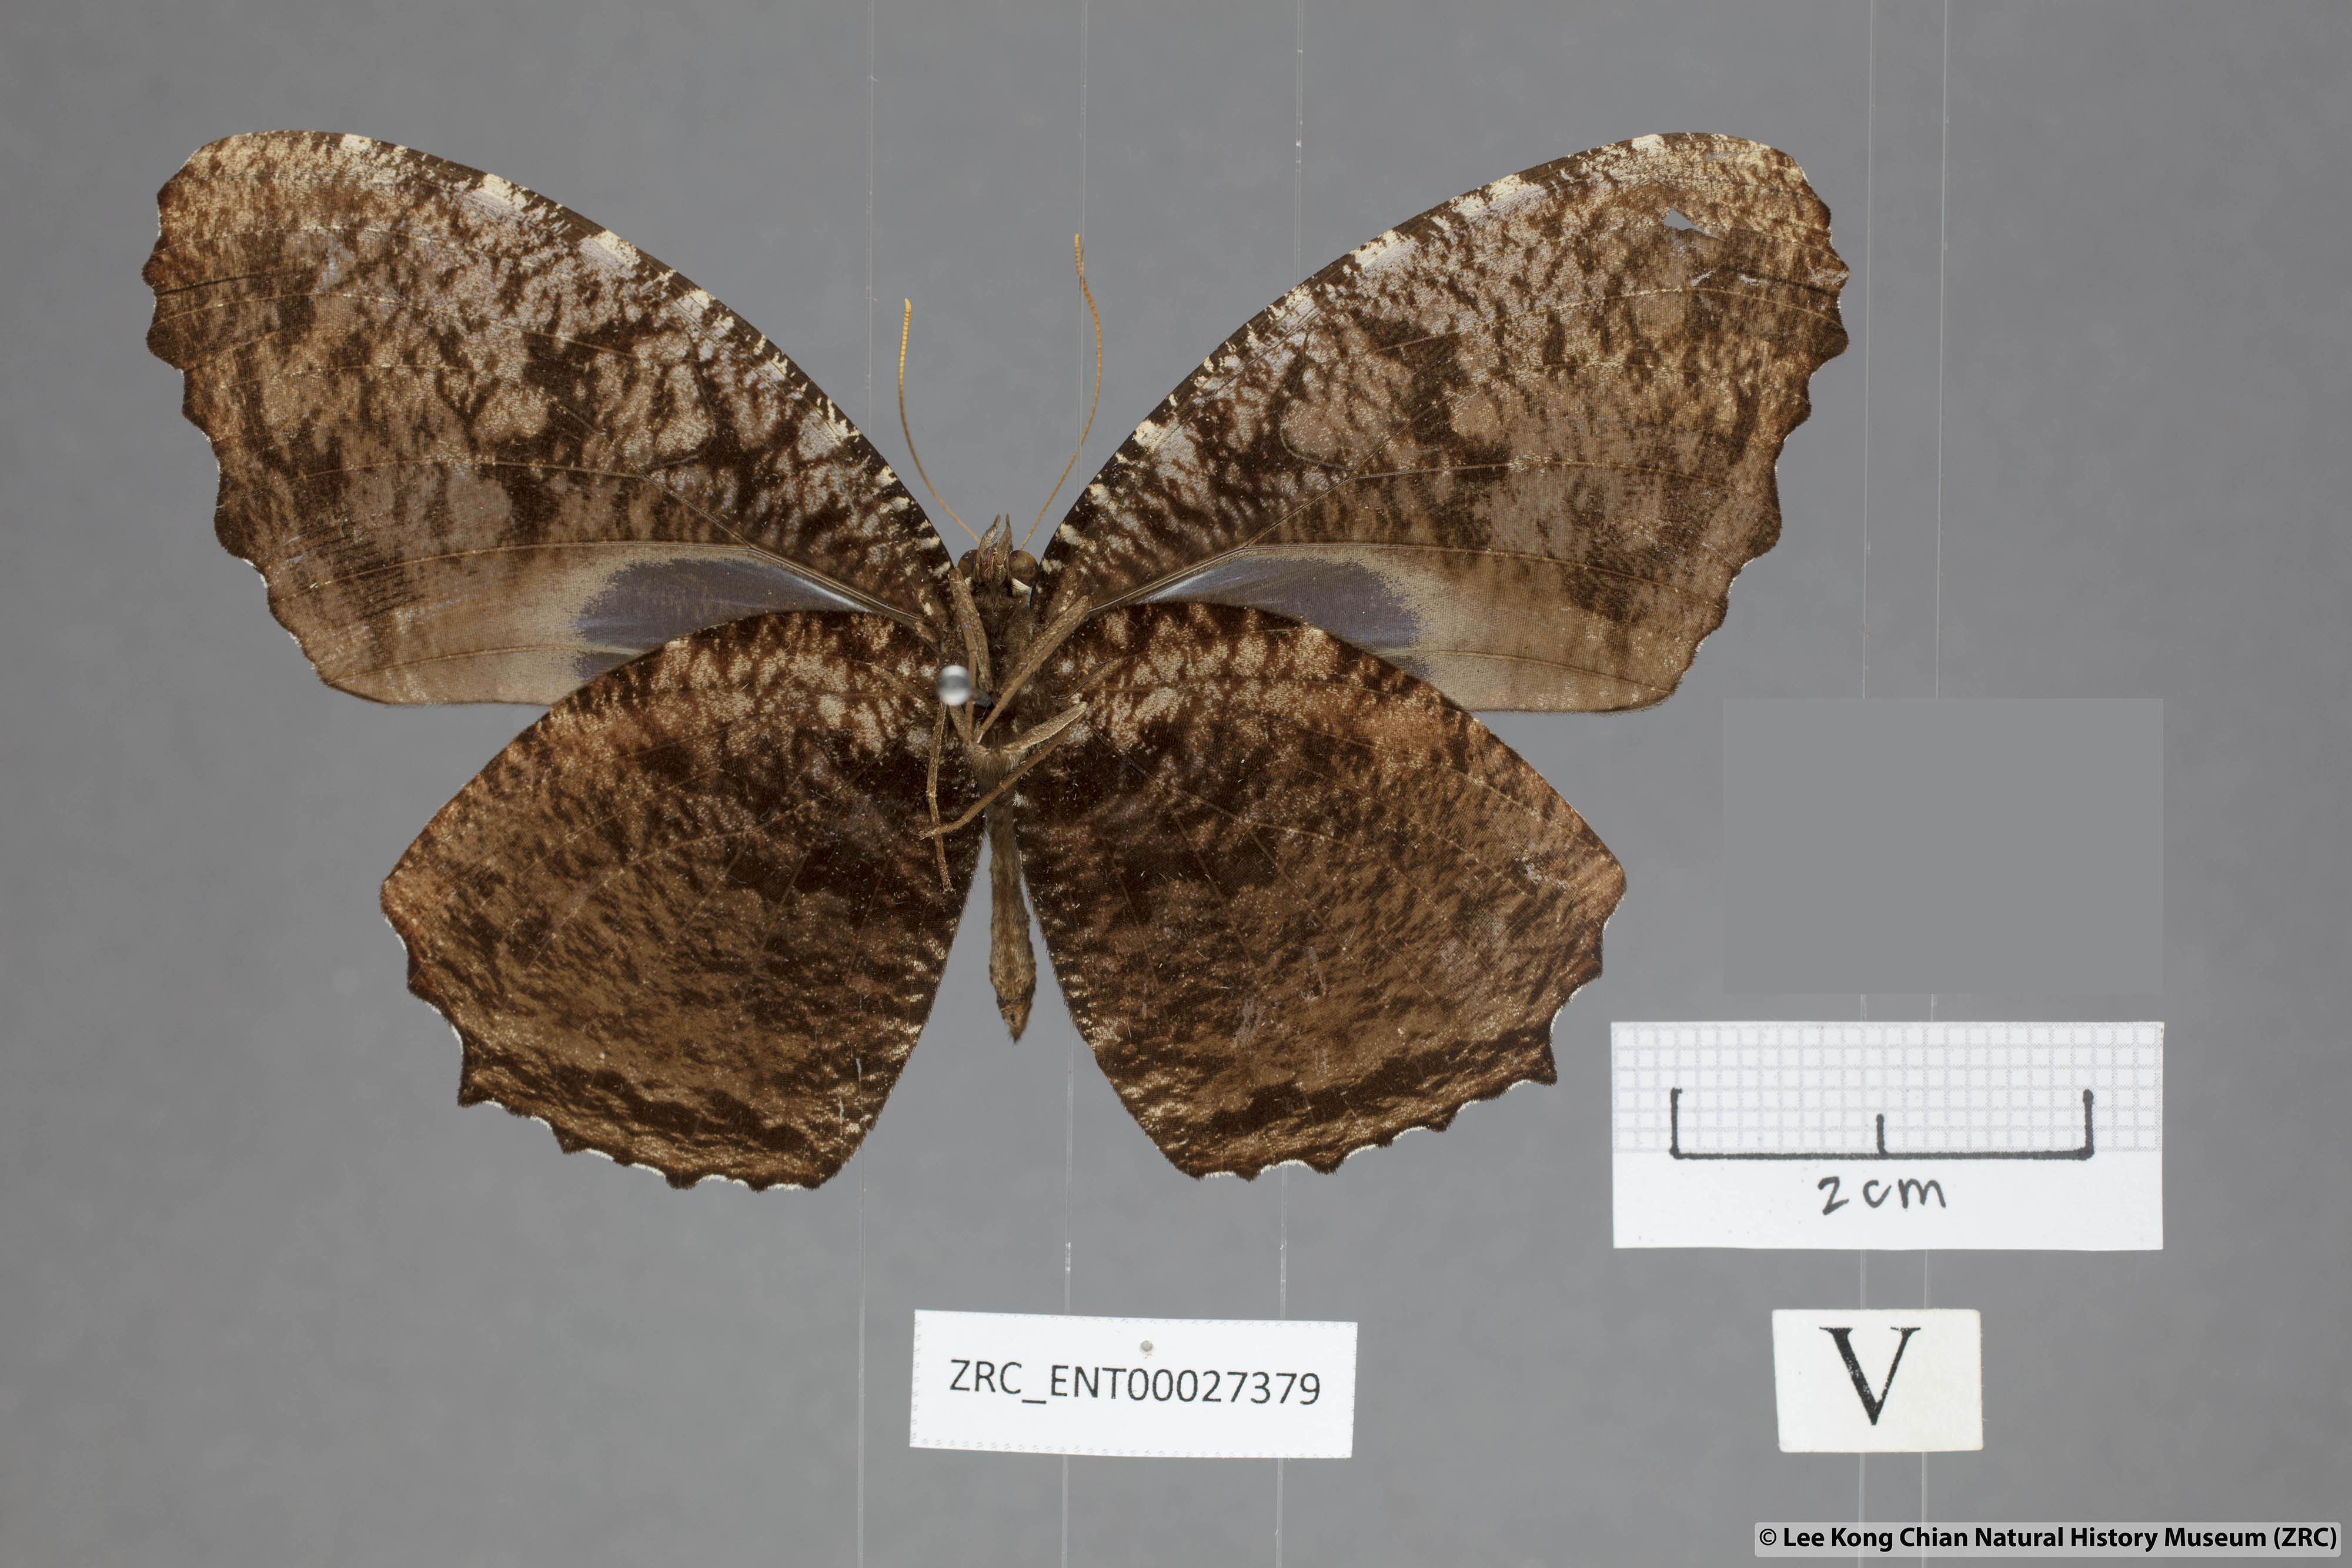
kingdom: Animalia
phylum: Arthropoda
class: Insecta
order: Lepidoptera
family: Nymphalidae
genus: Elymnias
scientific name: Elymnias casiphone
